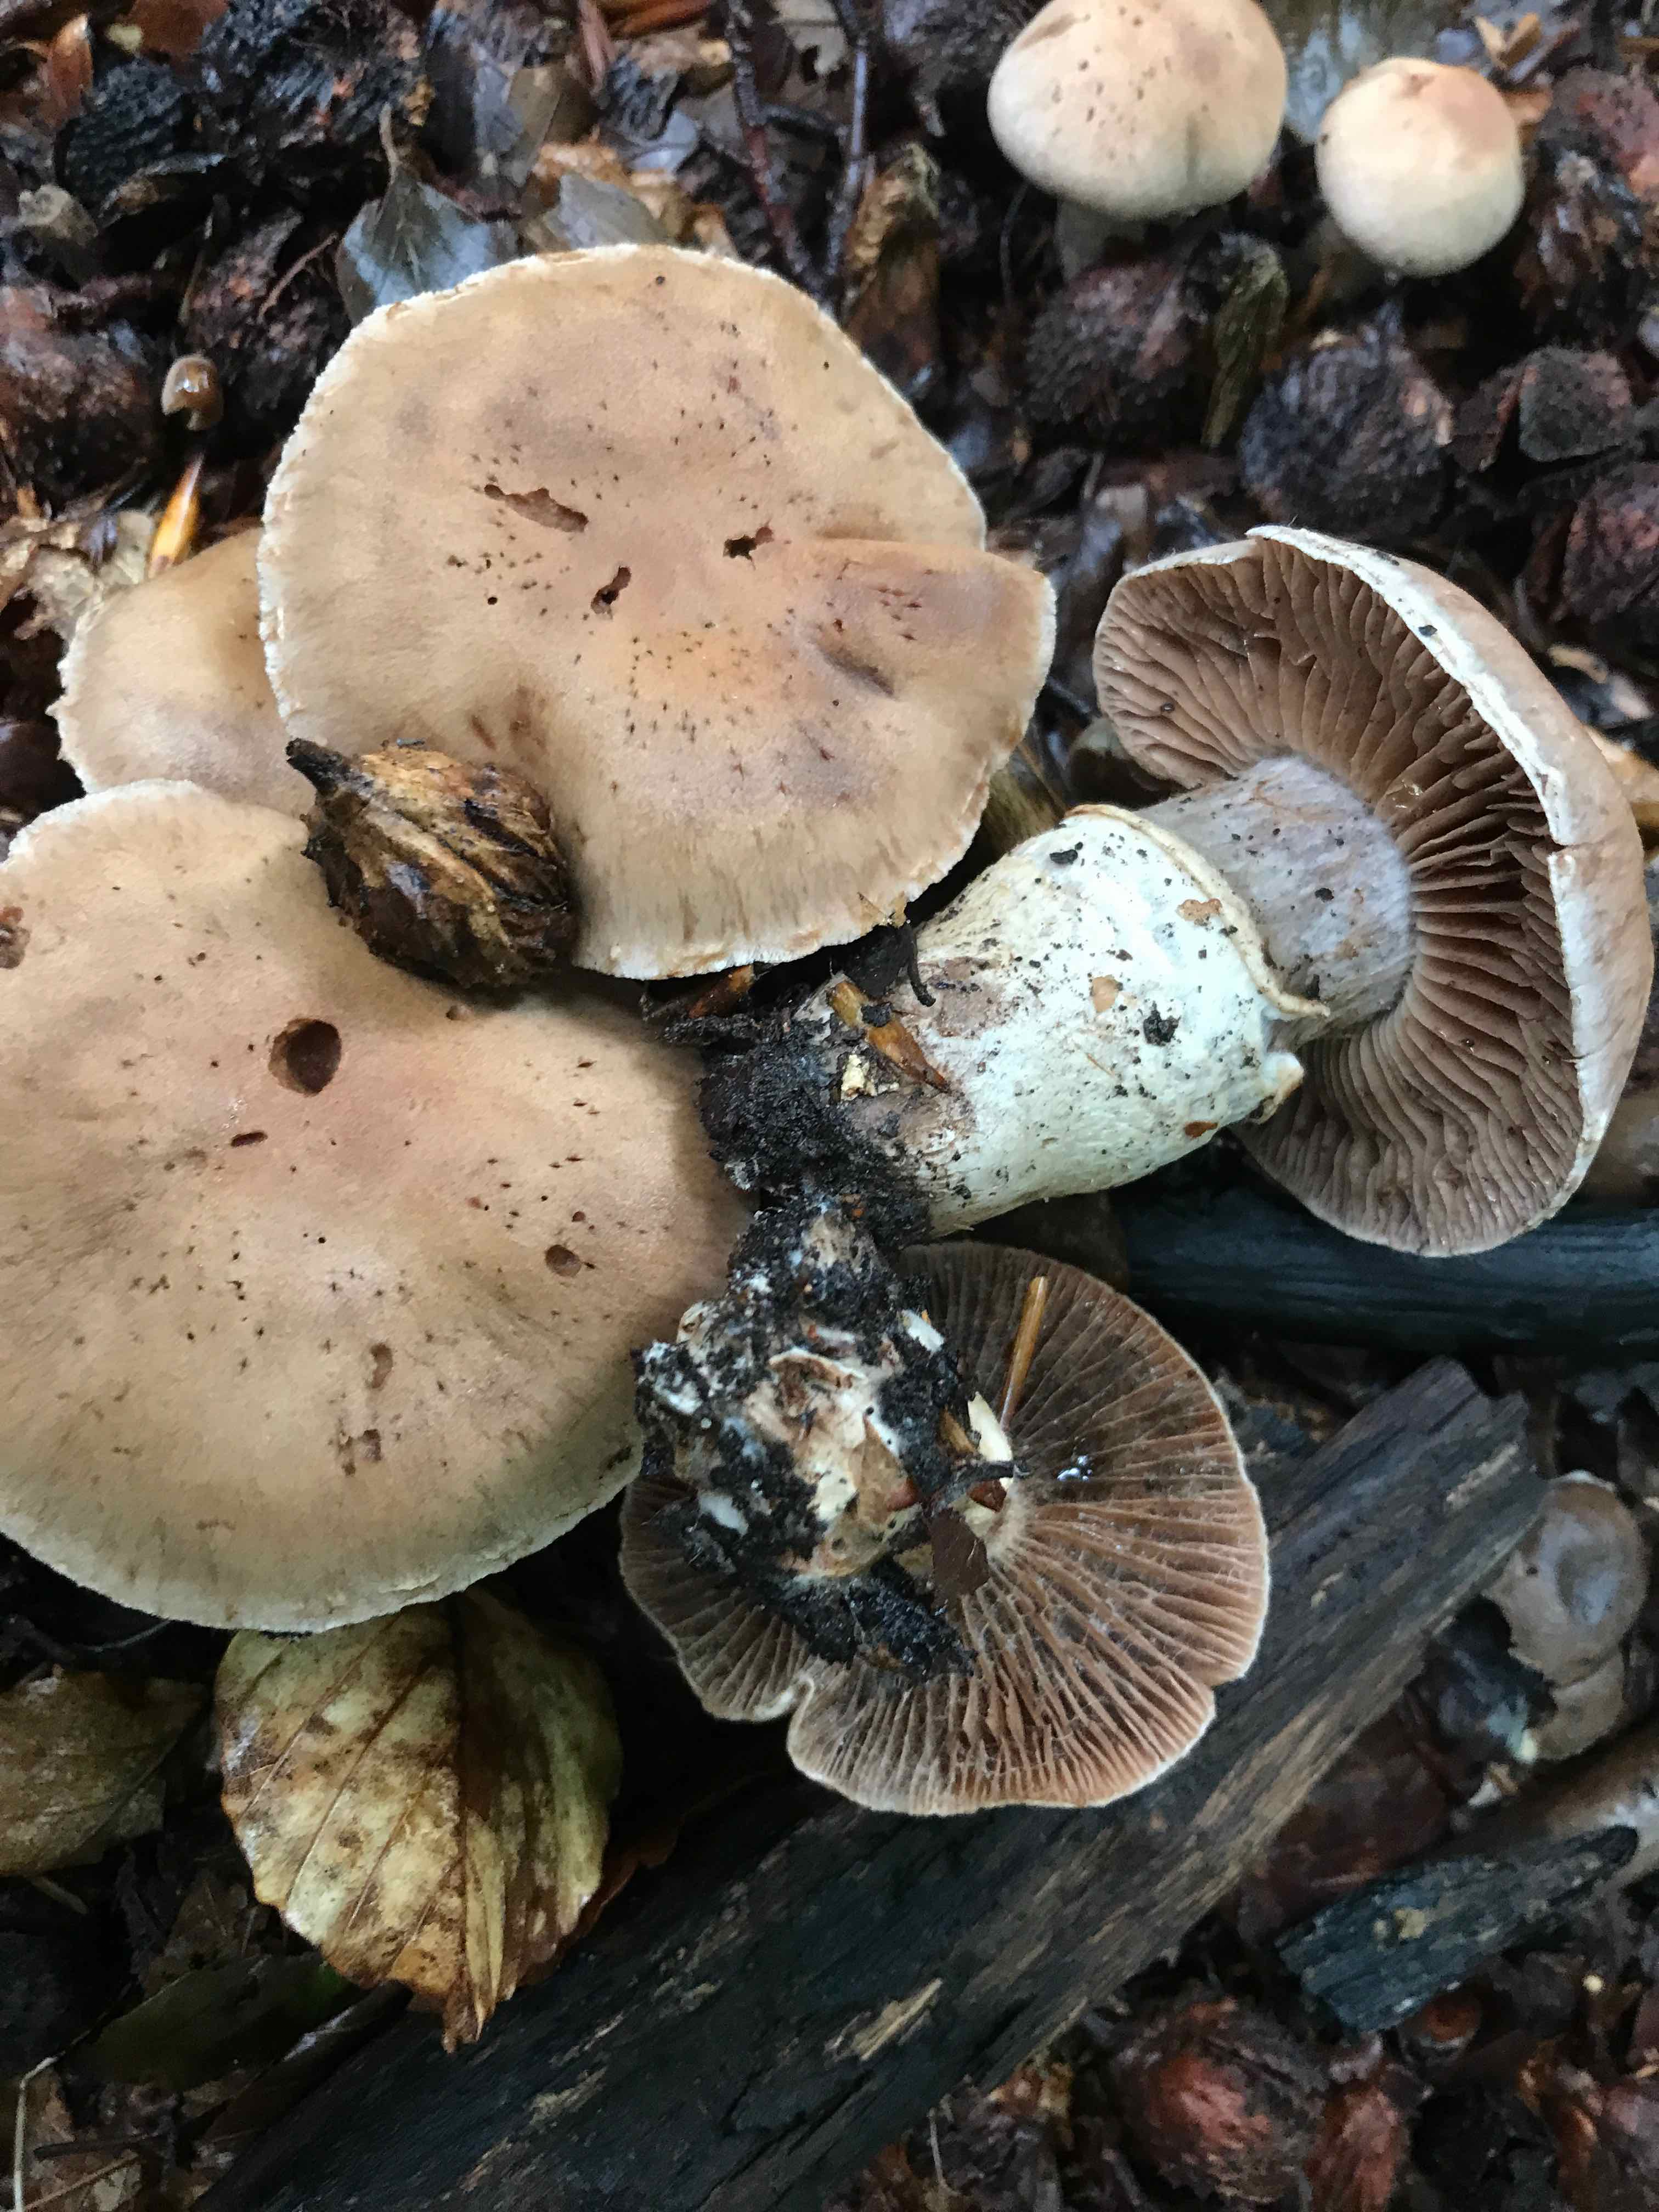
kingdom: Fungi
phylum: Basidiomycota
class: Agaricomycetes
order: Agaricales
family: Cortinariaceae
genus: Cortinarius
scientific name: Cortinarius torvus
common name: champignonagtig slørhat
